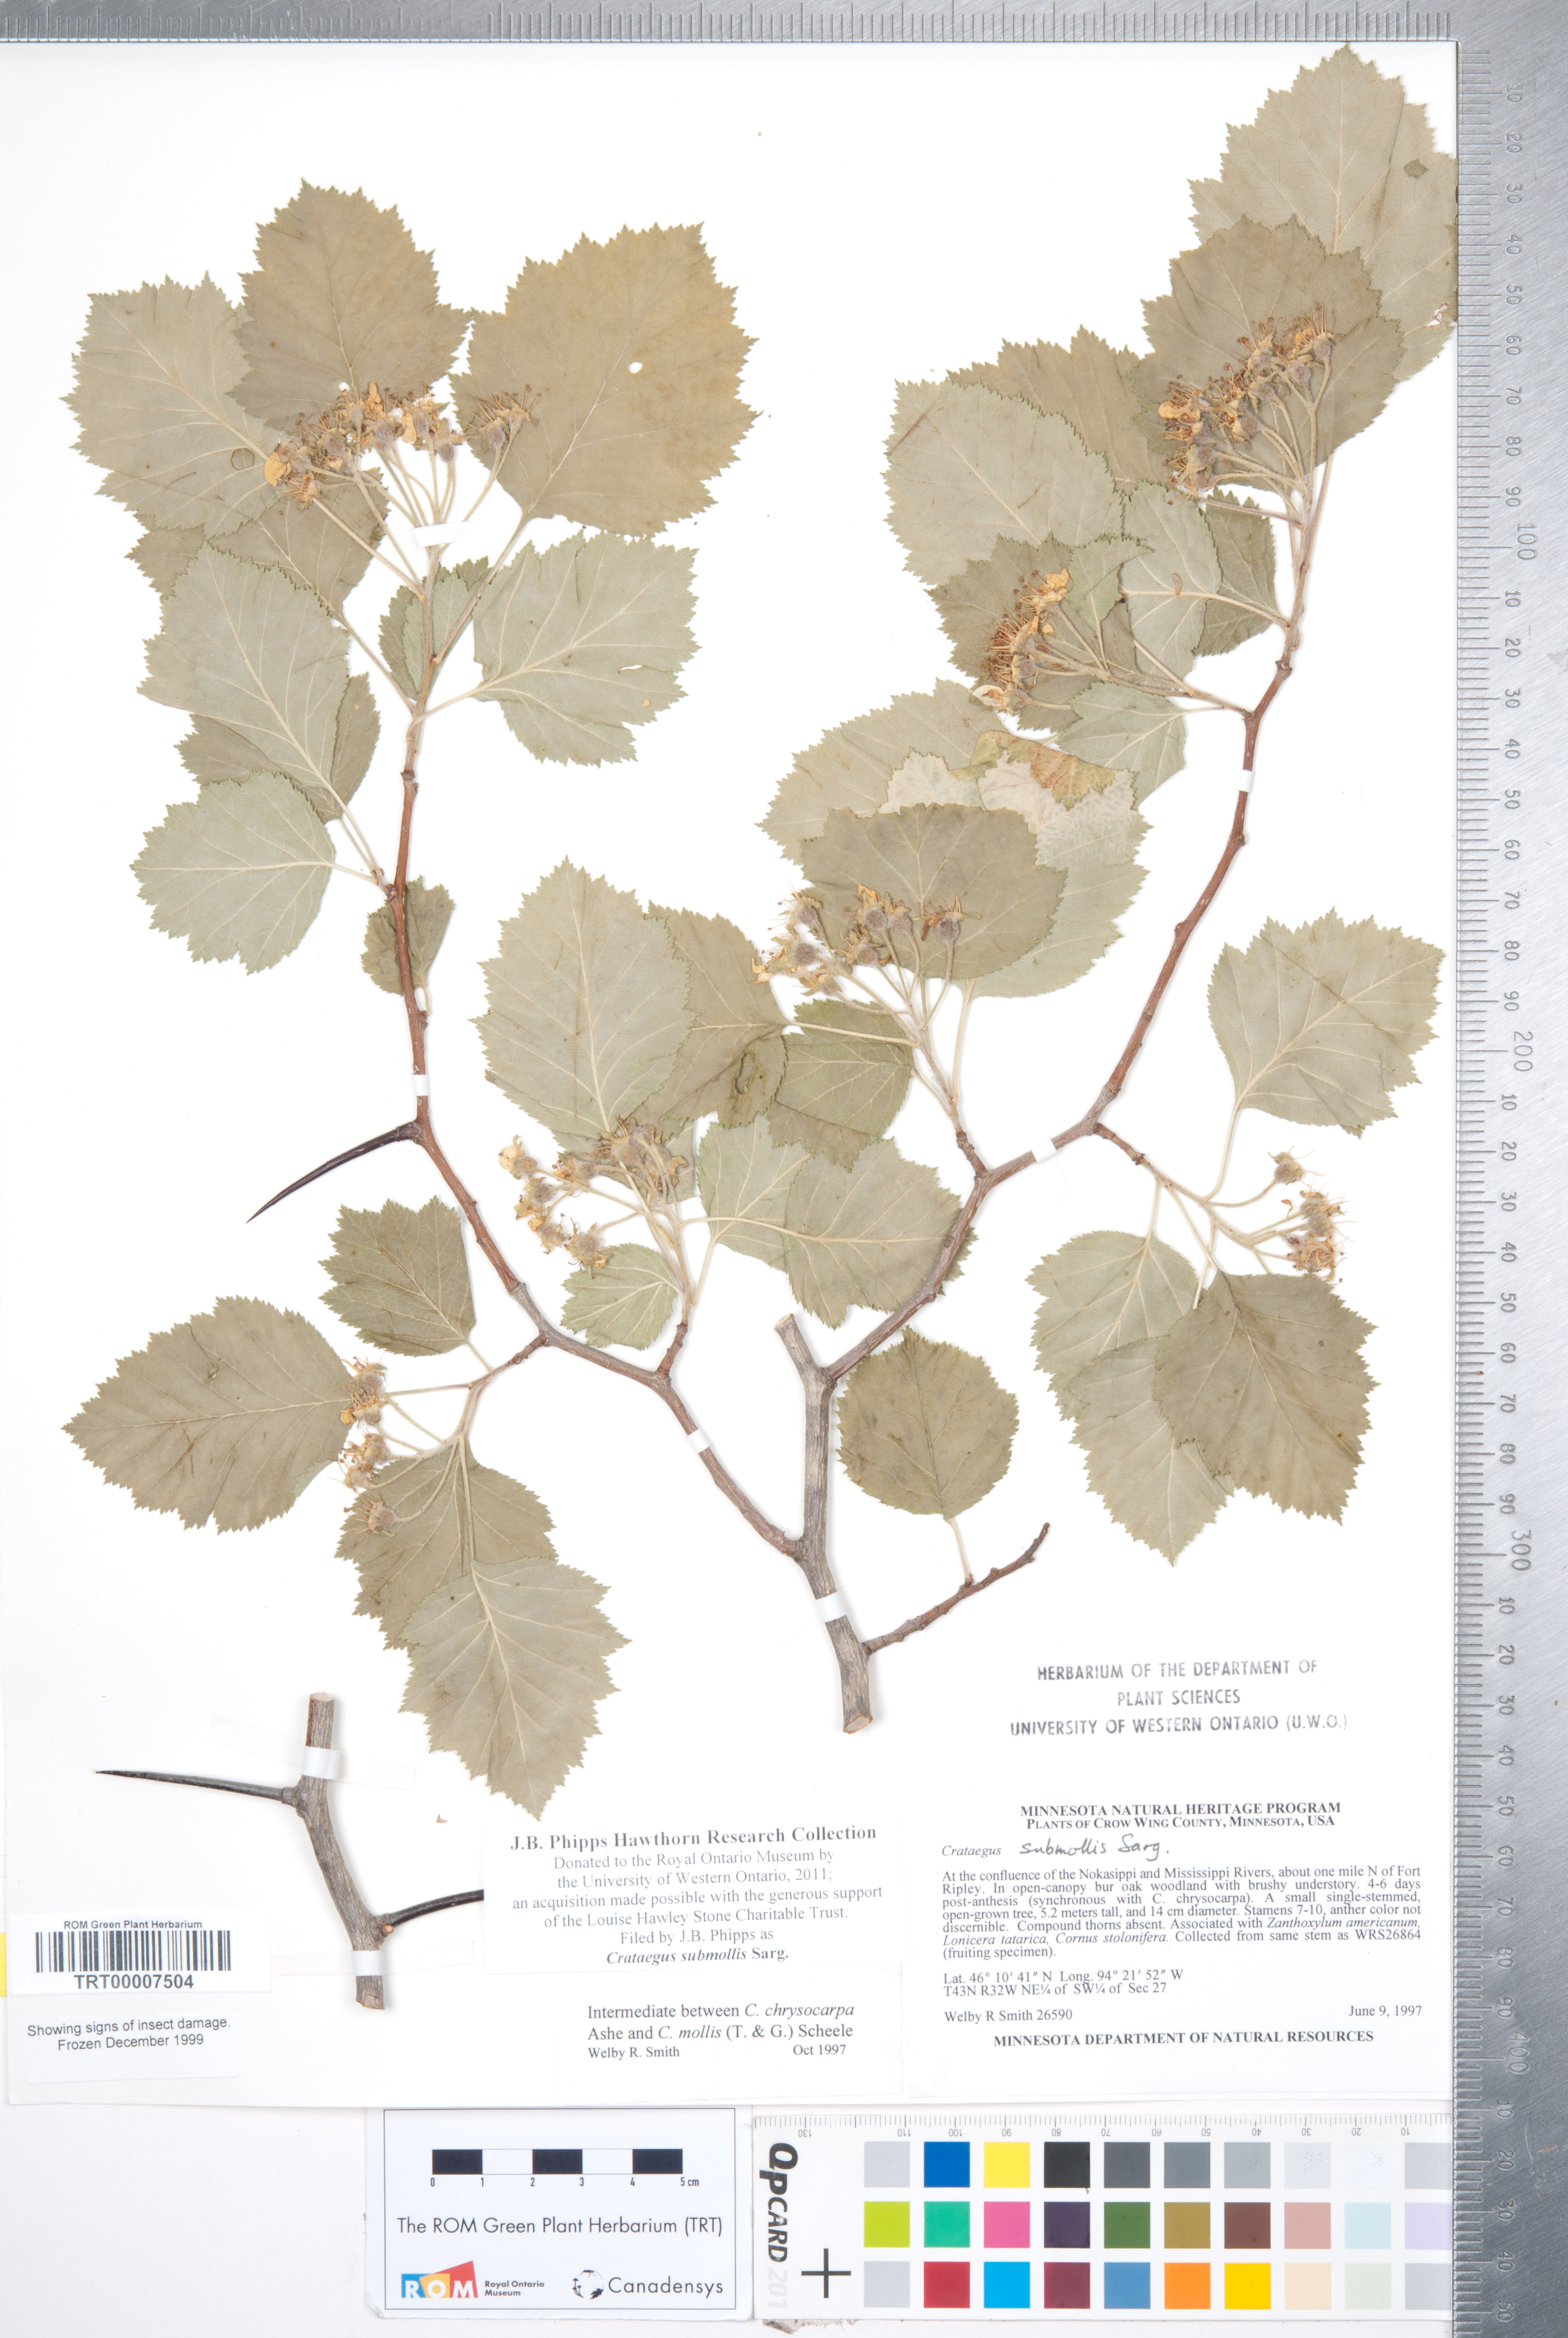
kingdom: Plantae
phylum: Tracheophyta
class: Magnoliopsida
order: Rosales
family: Rosaceae
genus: Crataegus
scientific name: Crataegus submollis
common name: Hairy cockspurthorn
